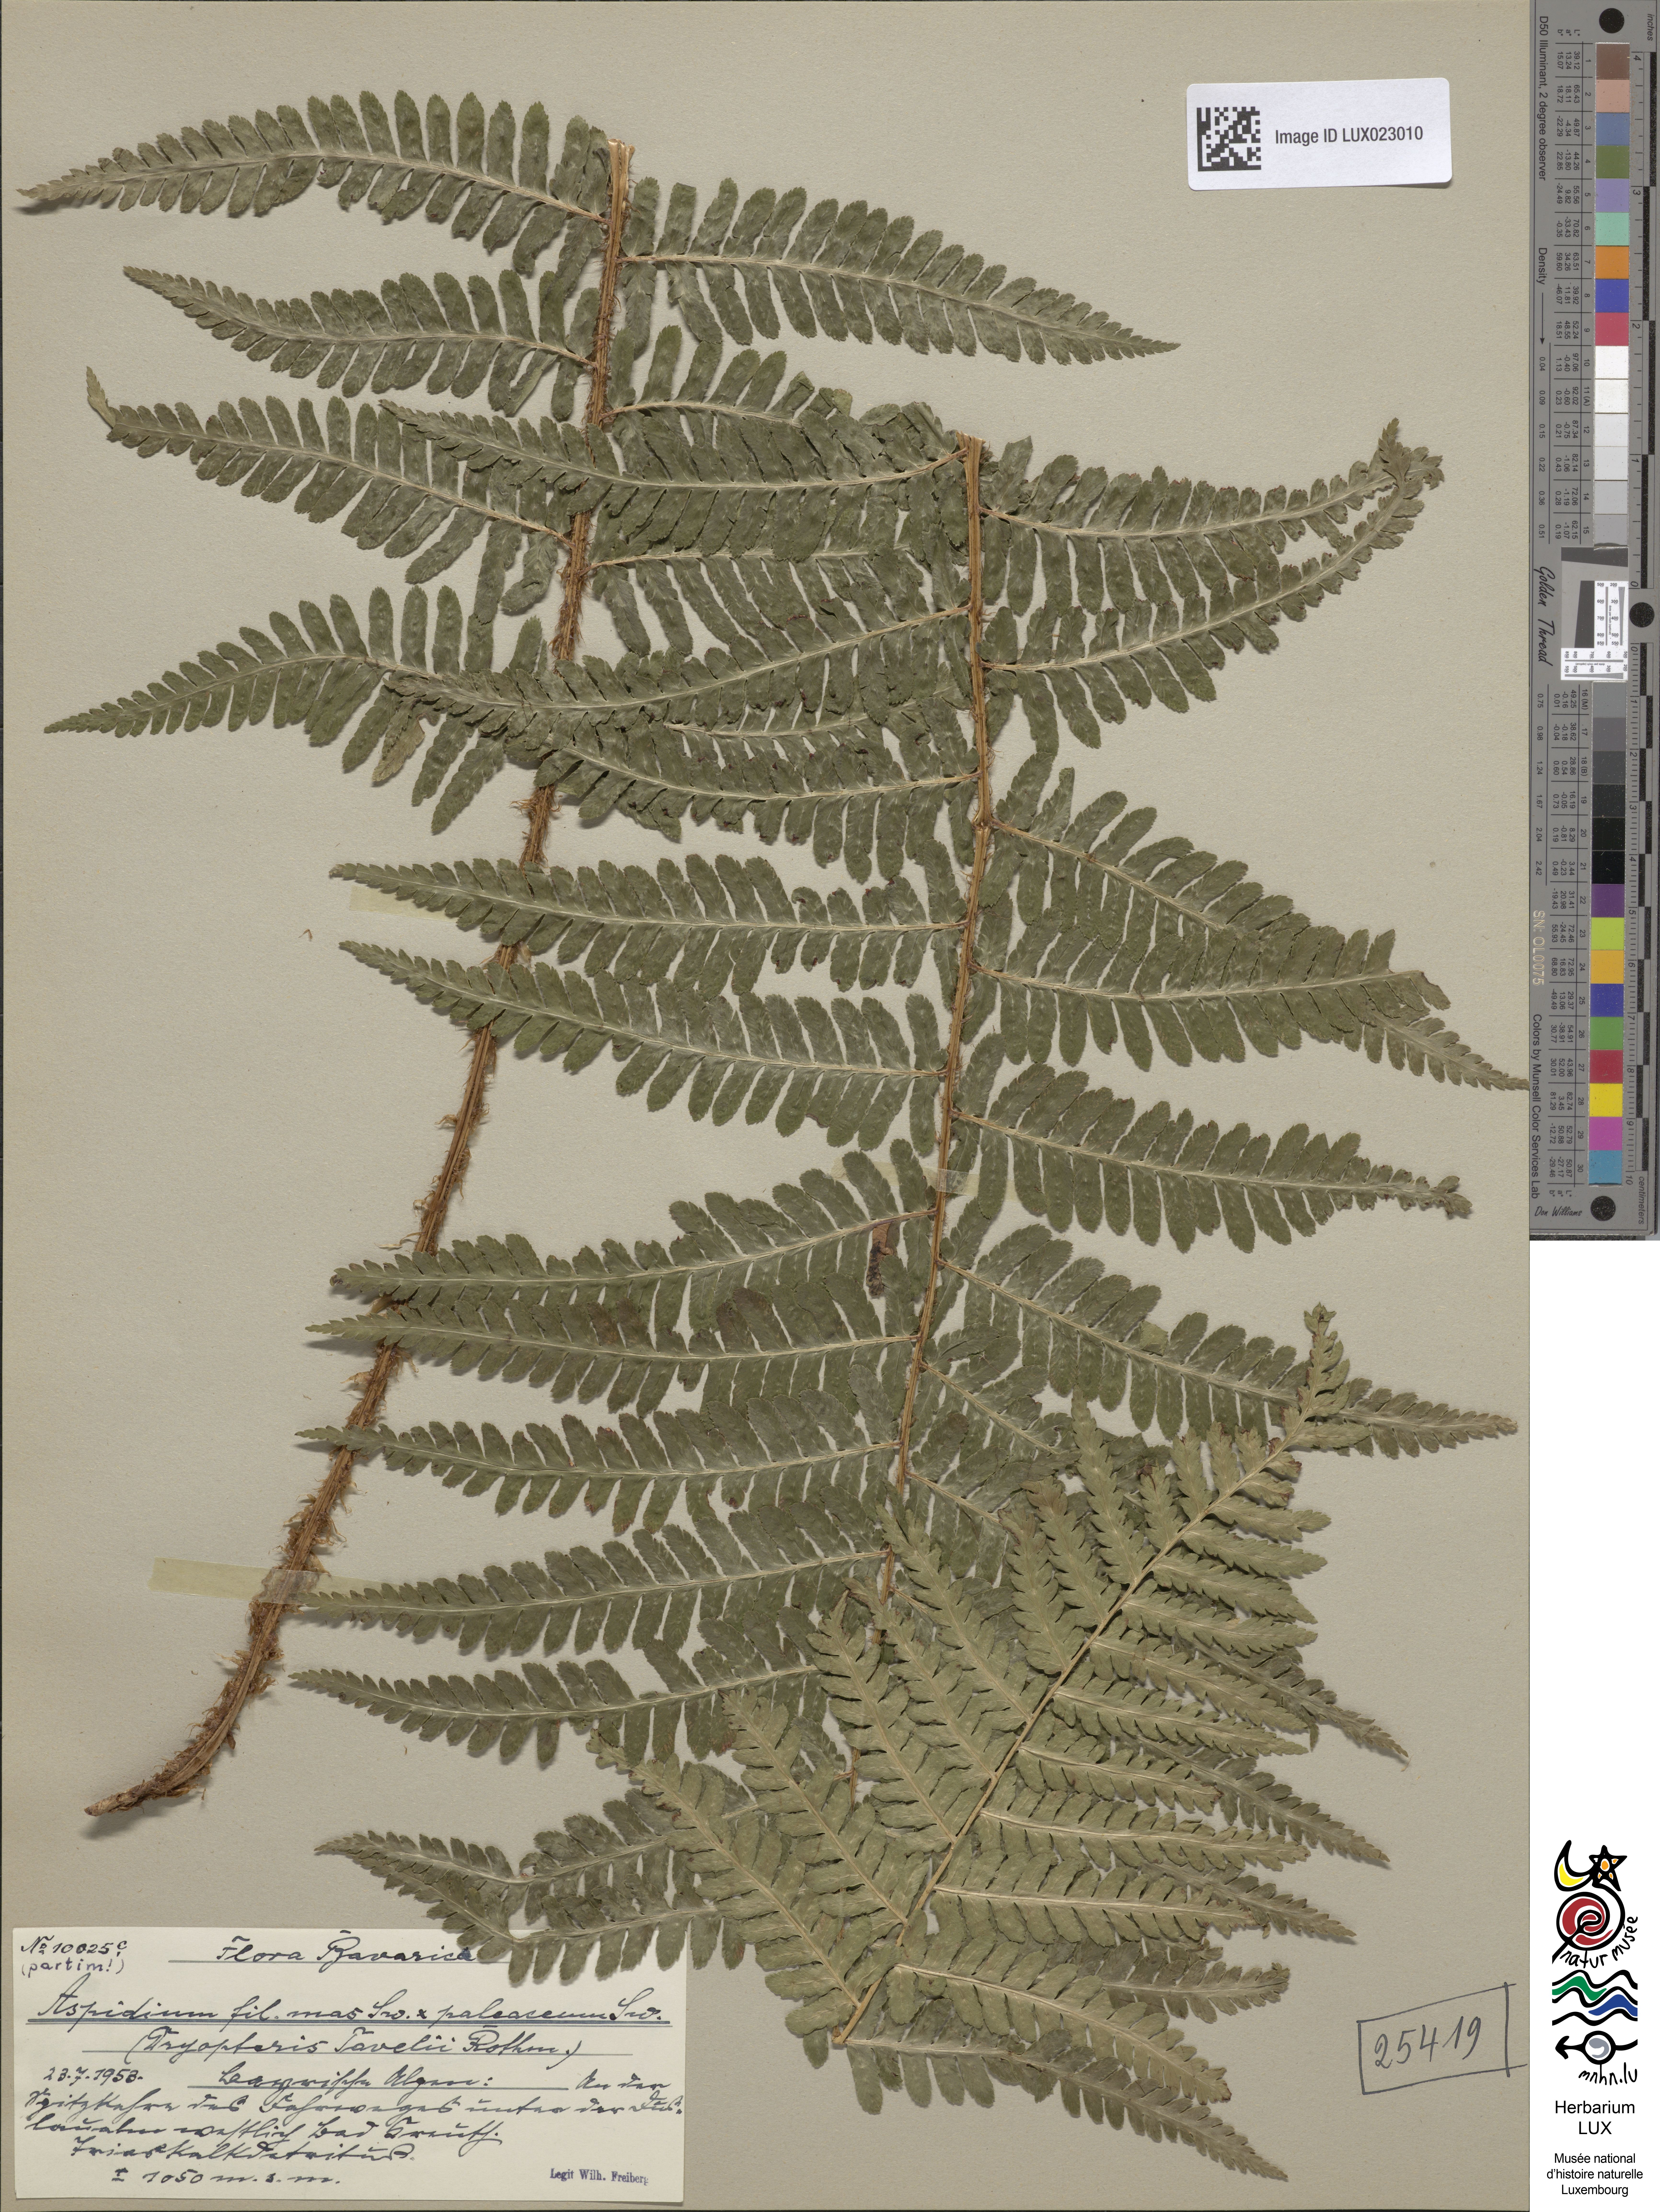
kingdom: Plantae
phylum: Tracheophyta
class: Polypodiopsida
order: Polypodiales
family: Dryopteridaceae
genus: Dryopteris
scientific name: Dryopteris borreri
